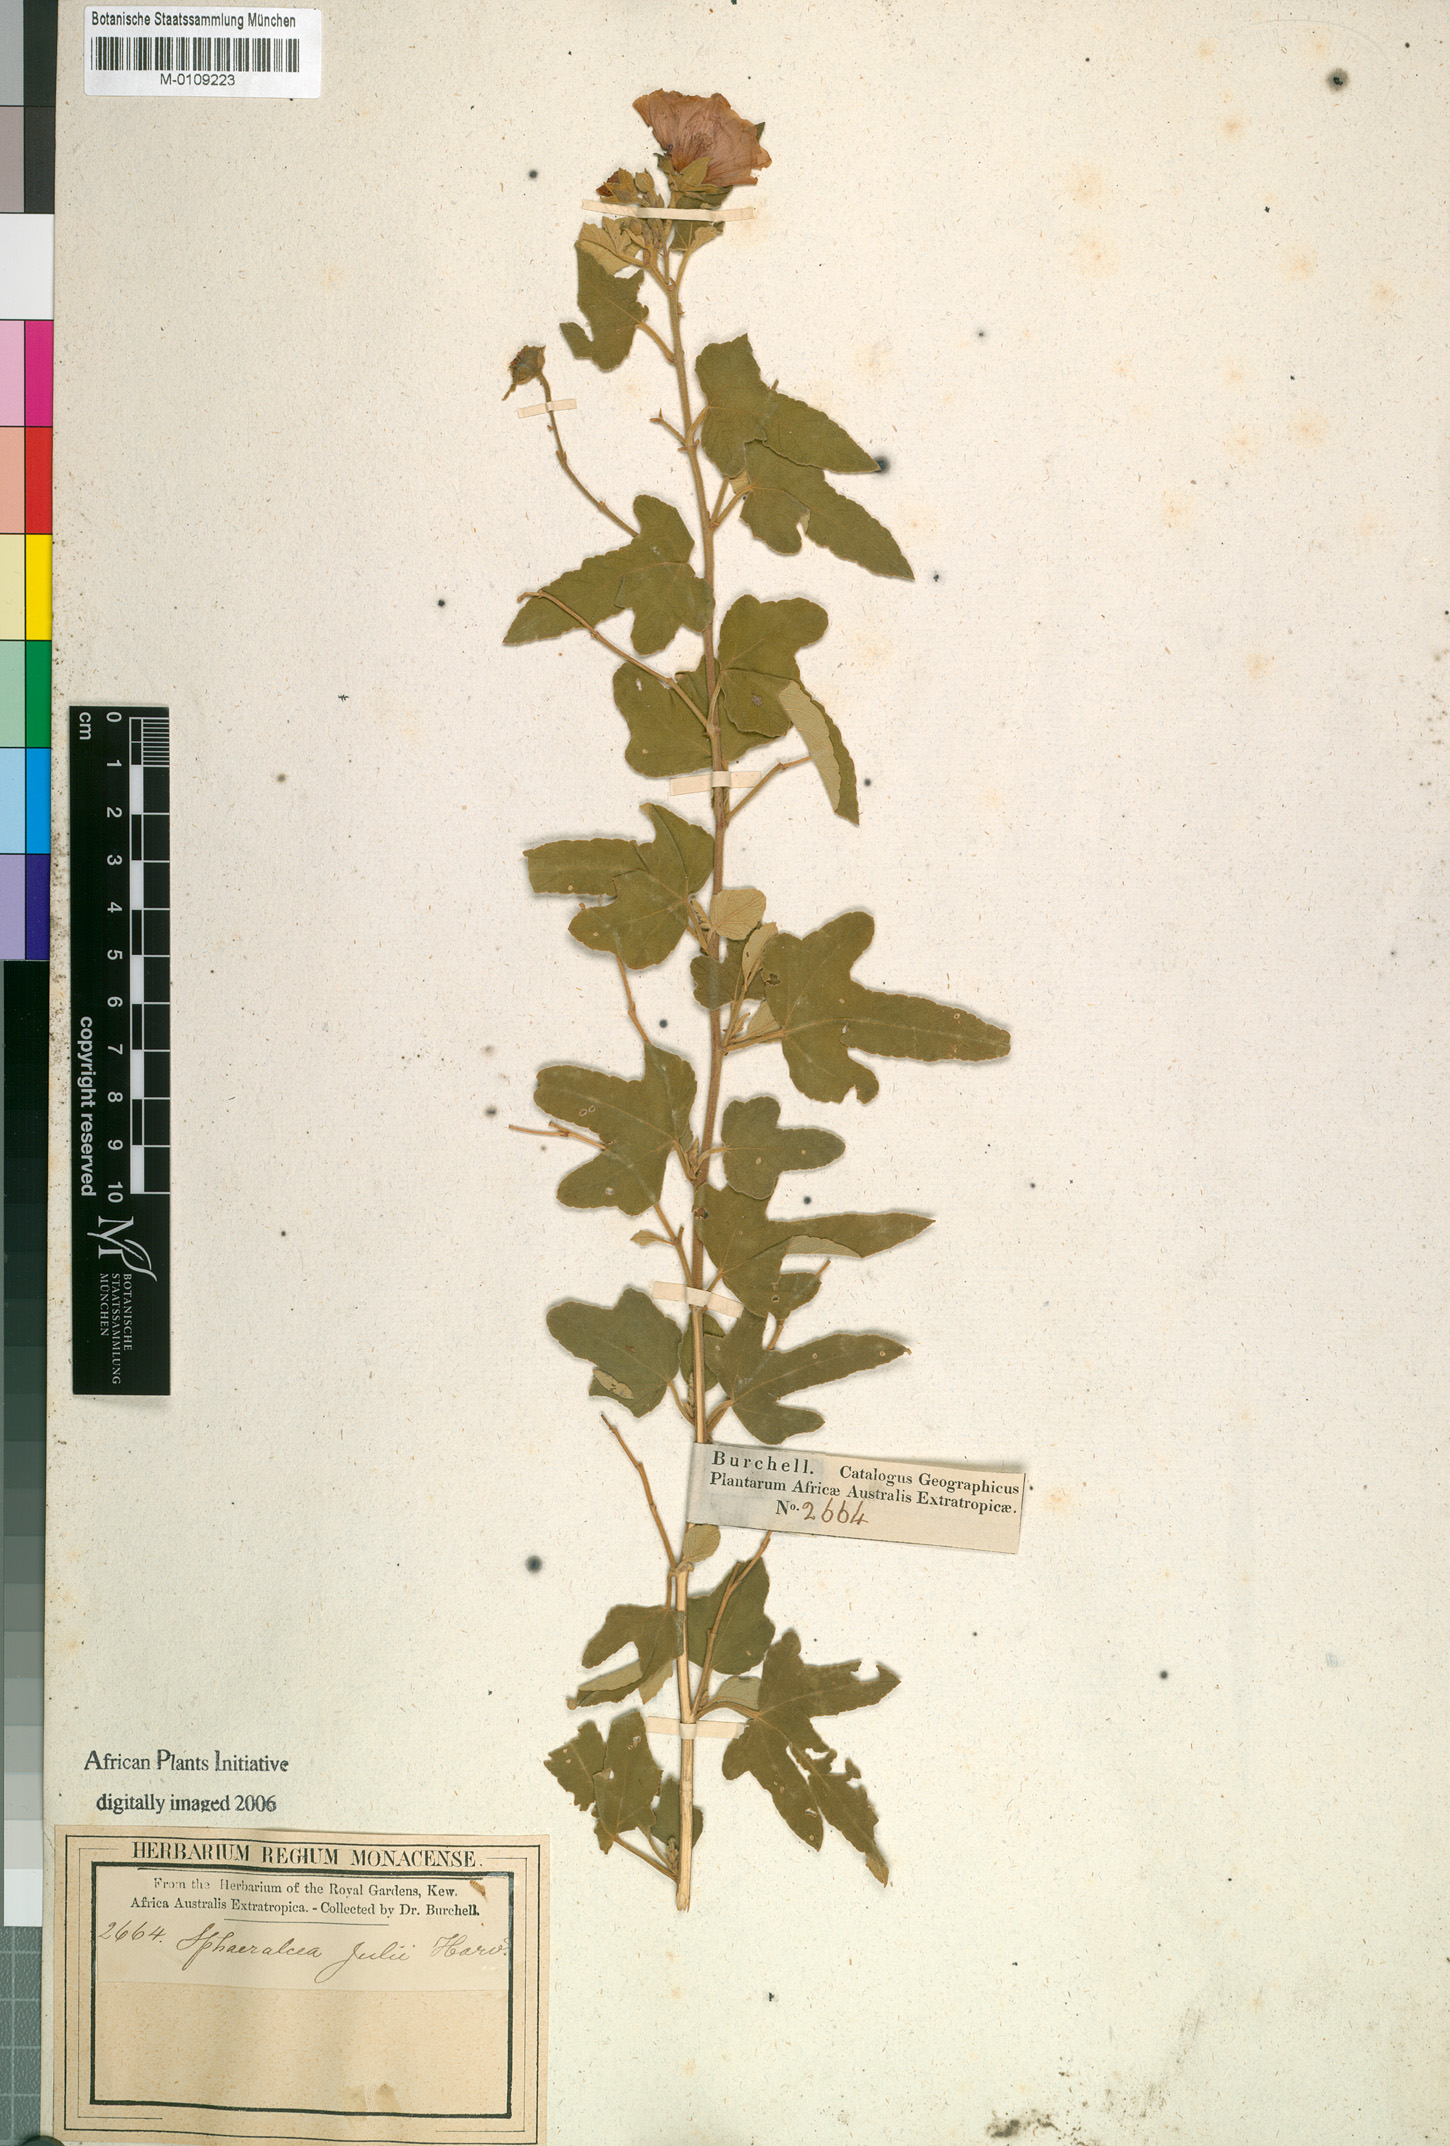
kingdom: Plantae
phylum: Tracheophyta
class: Magnoliopsida
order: Malvales
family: Malvaceae
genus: Anisodontea
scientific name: Anisodontea julii
